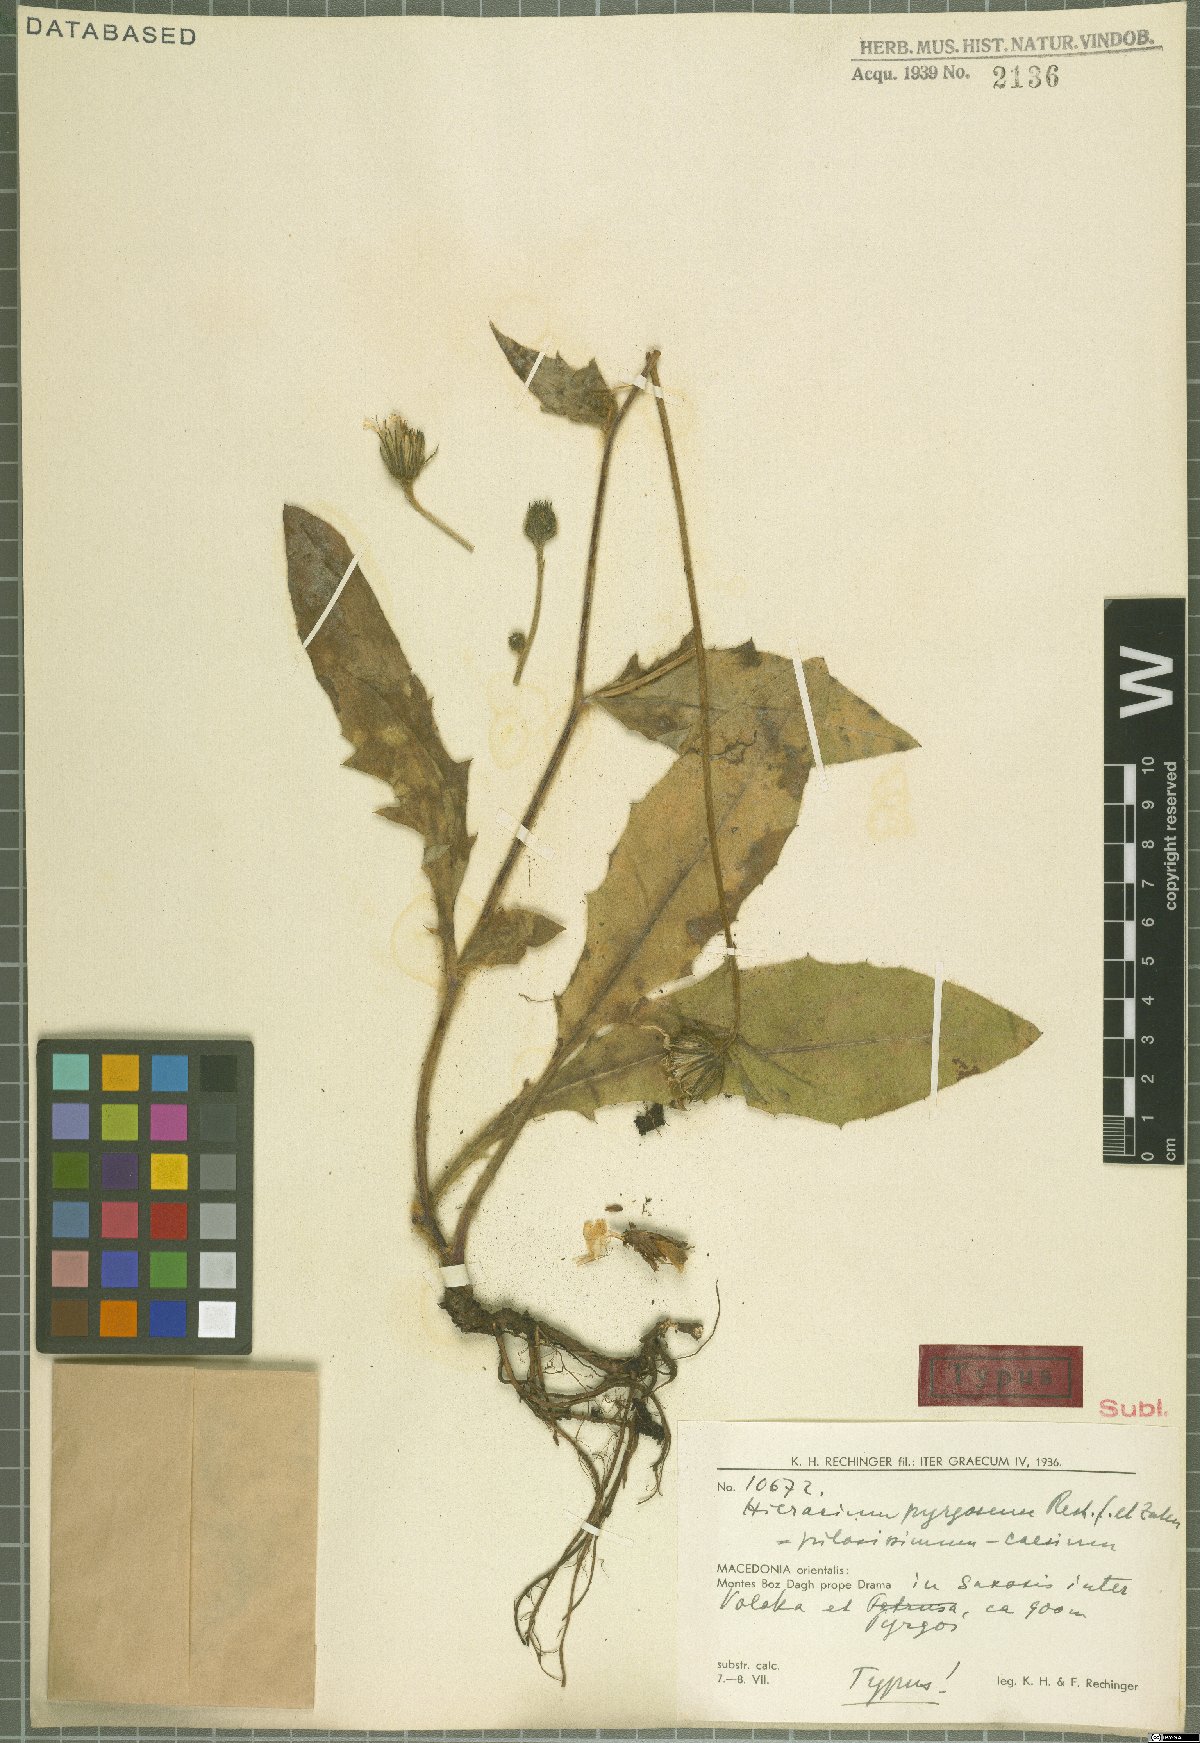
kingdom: Plantae
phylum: Tracheophyta
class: Magnoliopsida
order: Asterales
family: Asteraceae
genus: Hieracium
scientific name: Hieracium pyrgosense
